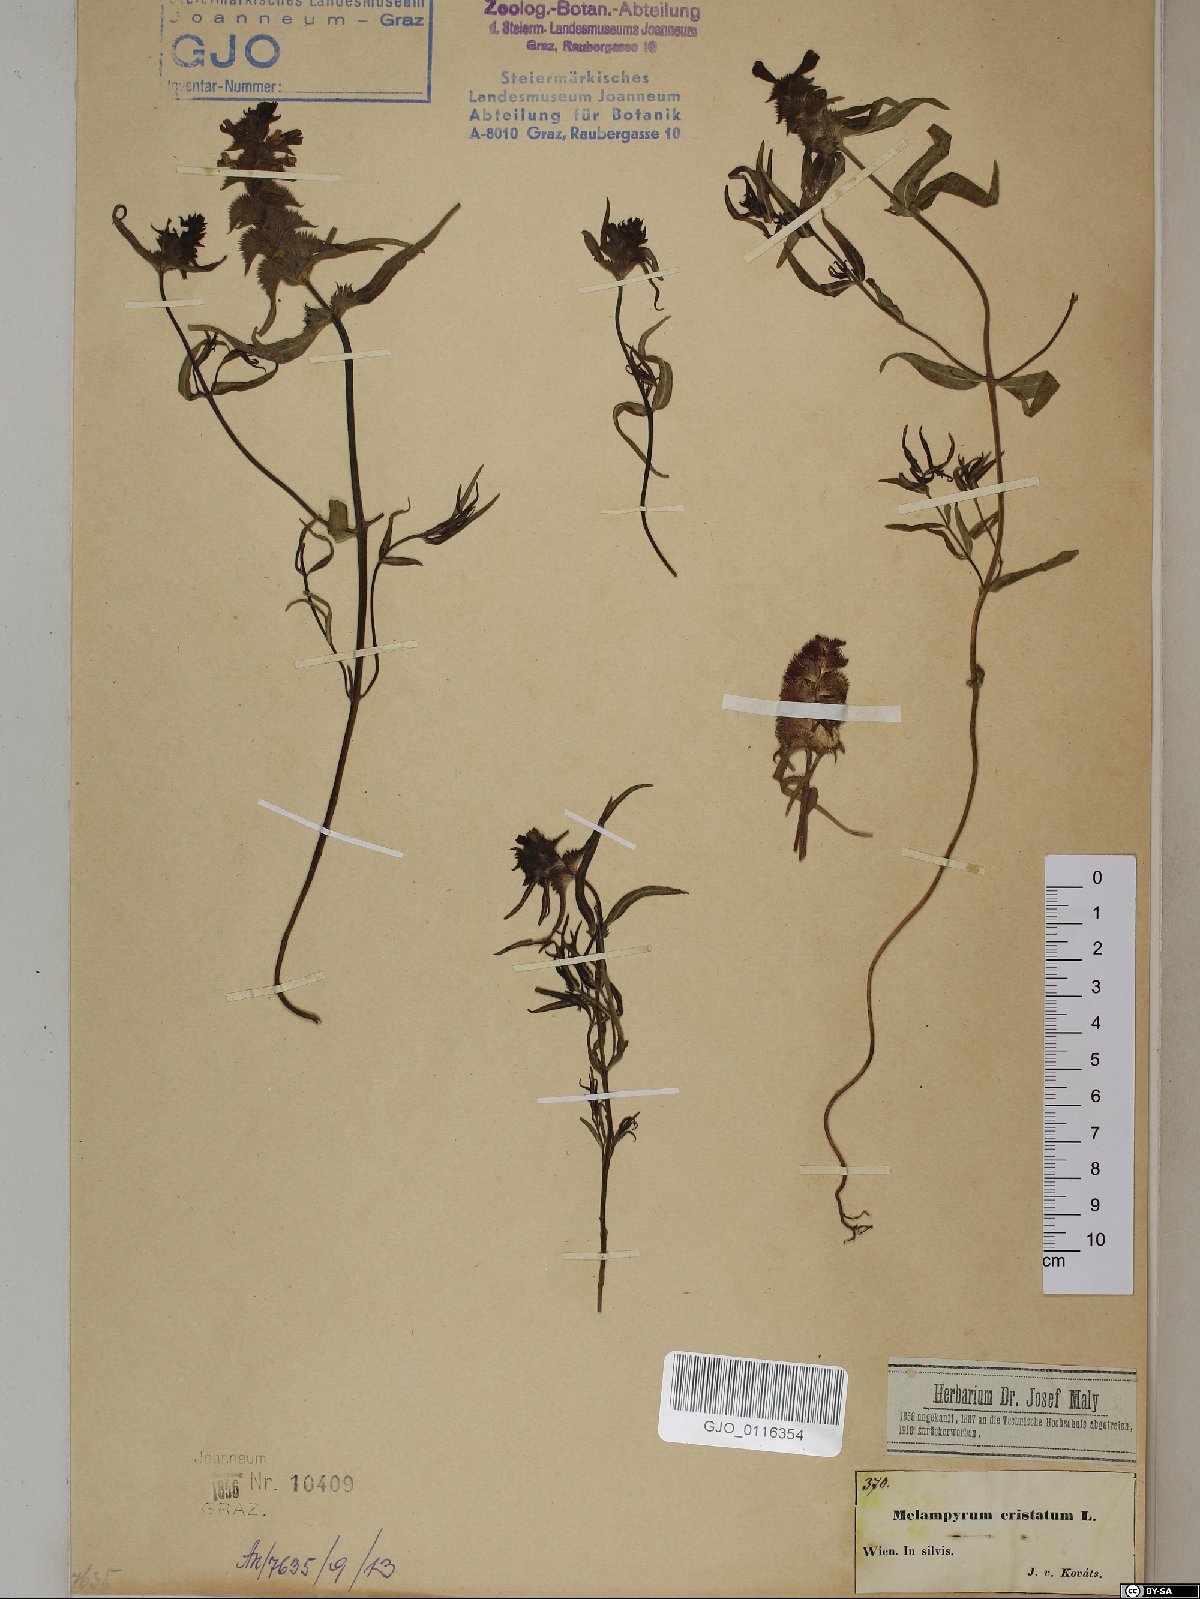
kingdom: Plantae
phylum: Tracheophyta
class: Magnoliopsida
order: Lamiales
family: Orobanchaceae
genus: Melampyrum
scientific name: Melampyrum cristatum
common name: Crested cow-wheat
